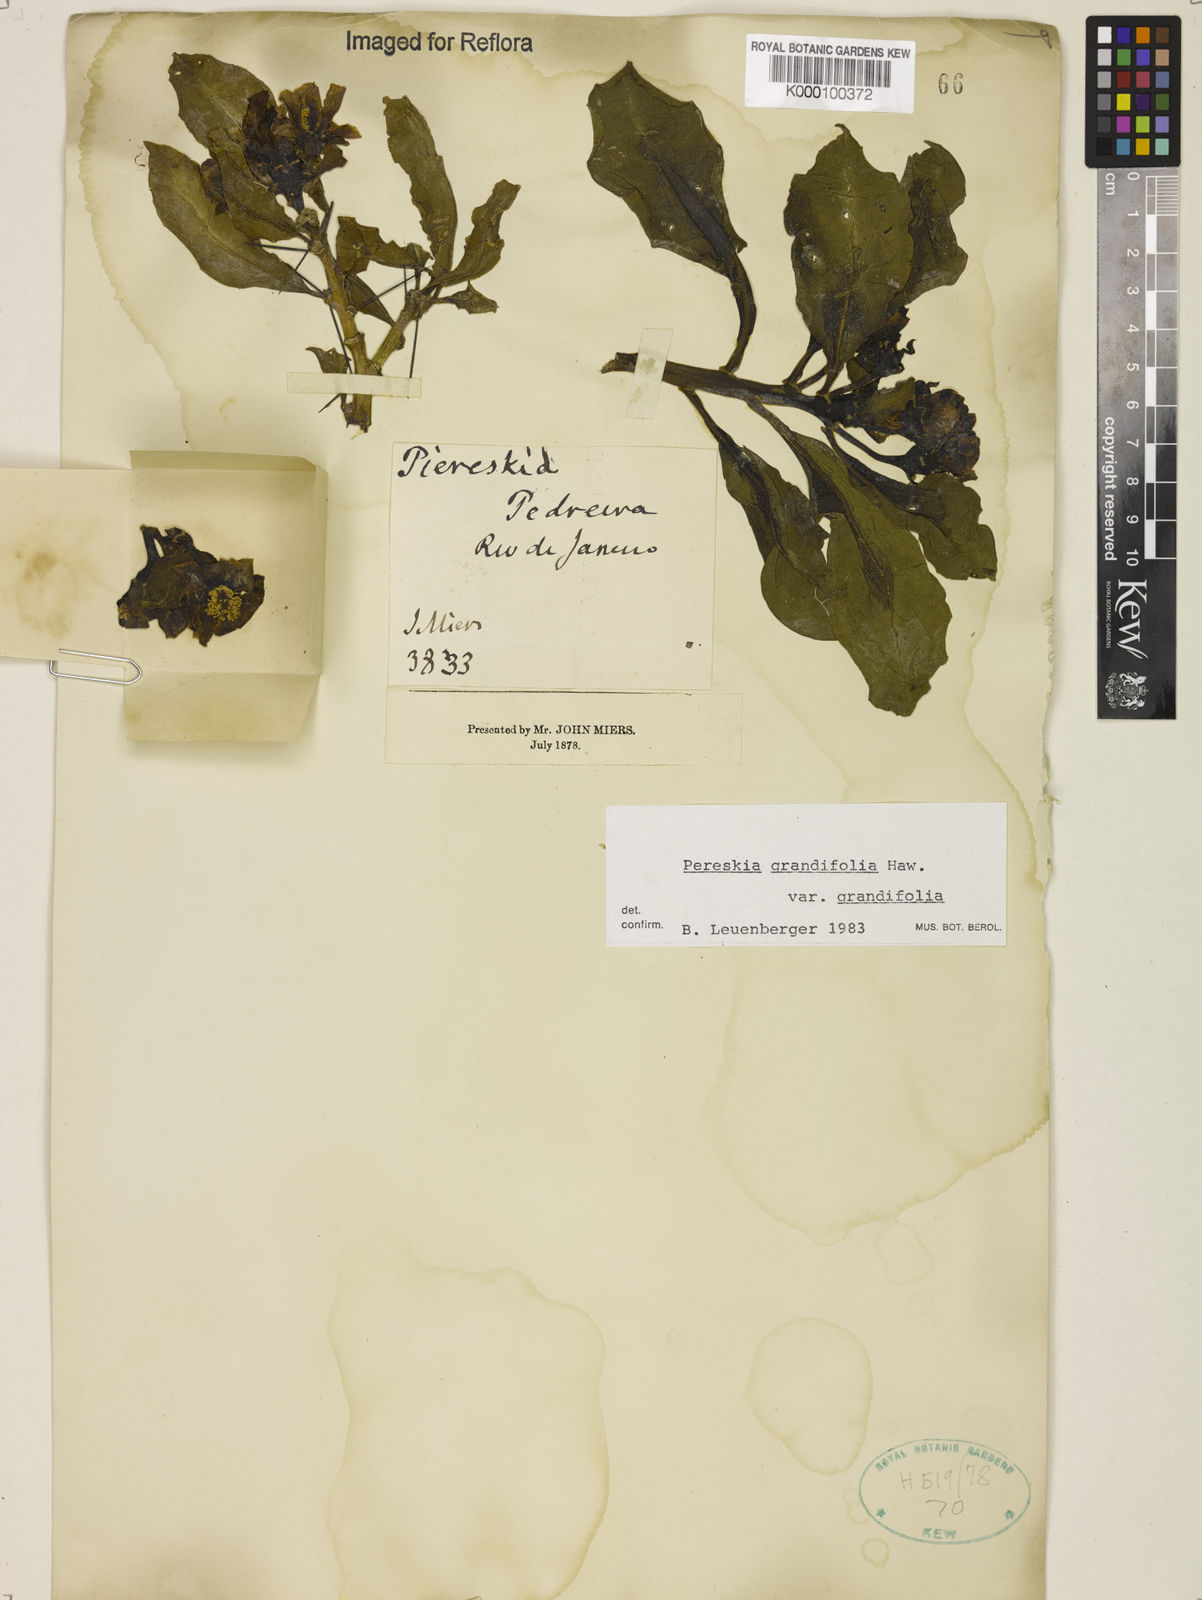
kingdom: Plantae
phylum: Tracheophyta
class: Magnoliopsida
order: Caryophyllales
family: Cactaceae
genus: Pereskia
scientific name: Pereskia grandifolia
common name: Rose cactus
